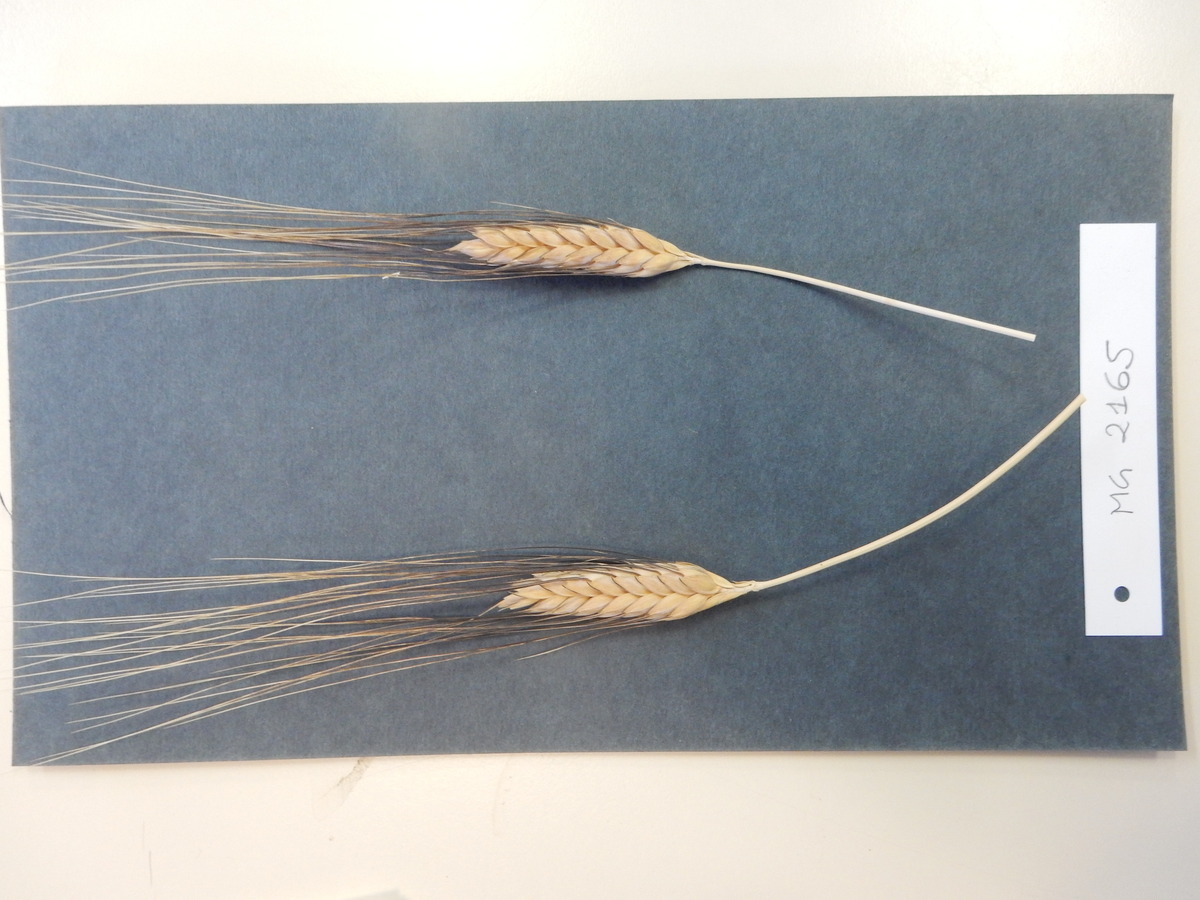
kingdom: Plantae
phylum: Tracheophyta
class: Liliopsida
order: Poales
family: Poaceae
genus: Triticum
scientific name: Triticum turgidum
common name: Wheat
